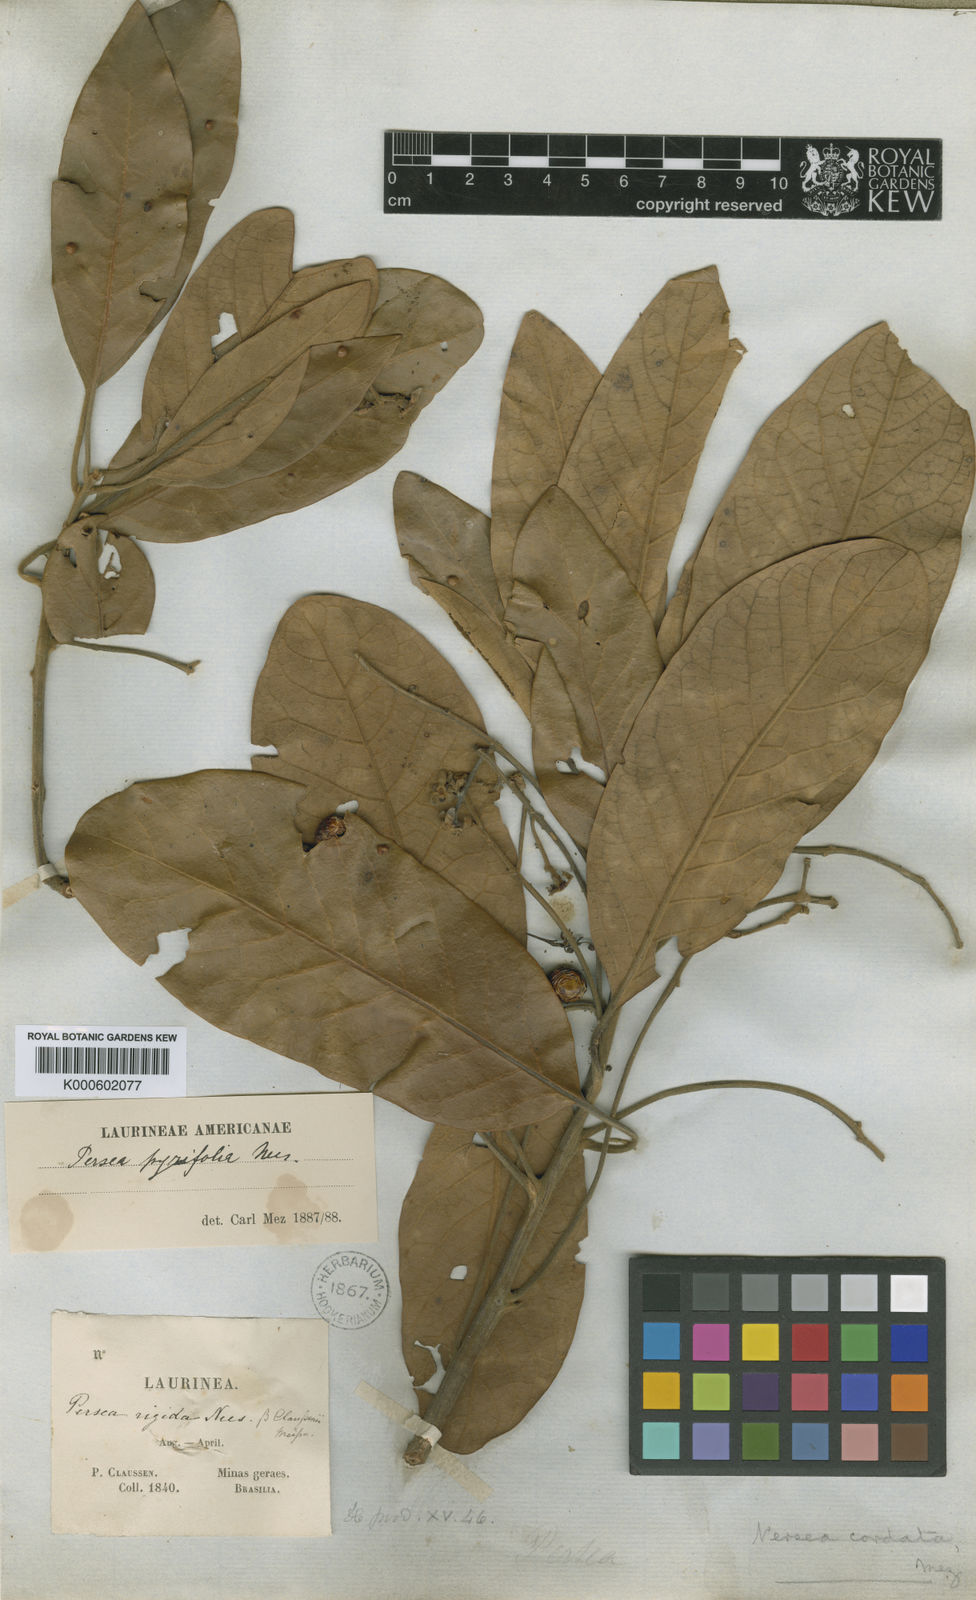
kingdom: Plantae
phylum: Tracheophyta
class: Magnoliopsida
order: Laurales
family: Lauraceae
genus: Persea
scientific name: Persea major
